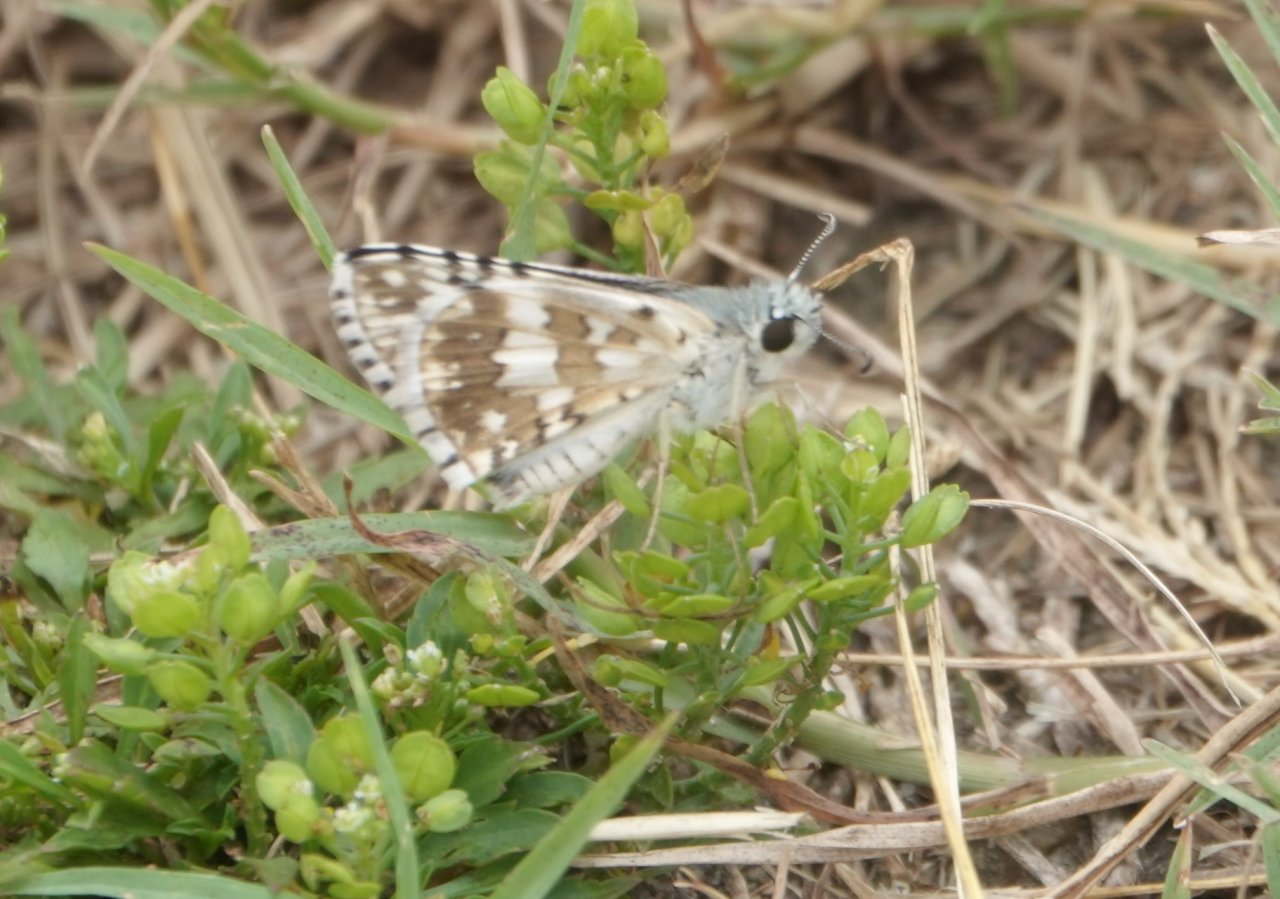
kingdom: Animalia
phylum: Arthropoda
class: Insecta
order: Lepidoptera
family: Hesperiidae
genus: Pyrgus
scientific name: Pyrgus communis
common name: White Checkered-Skipper
